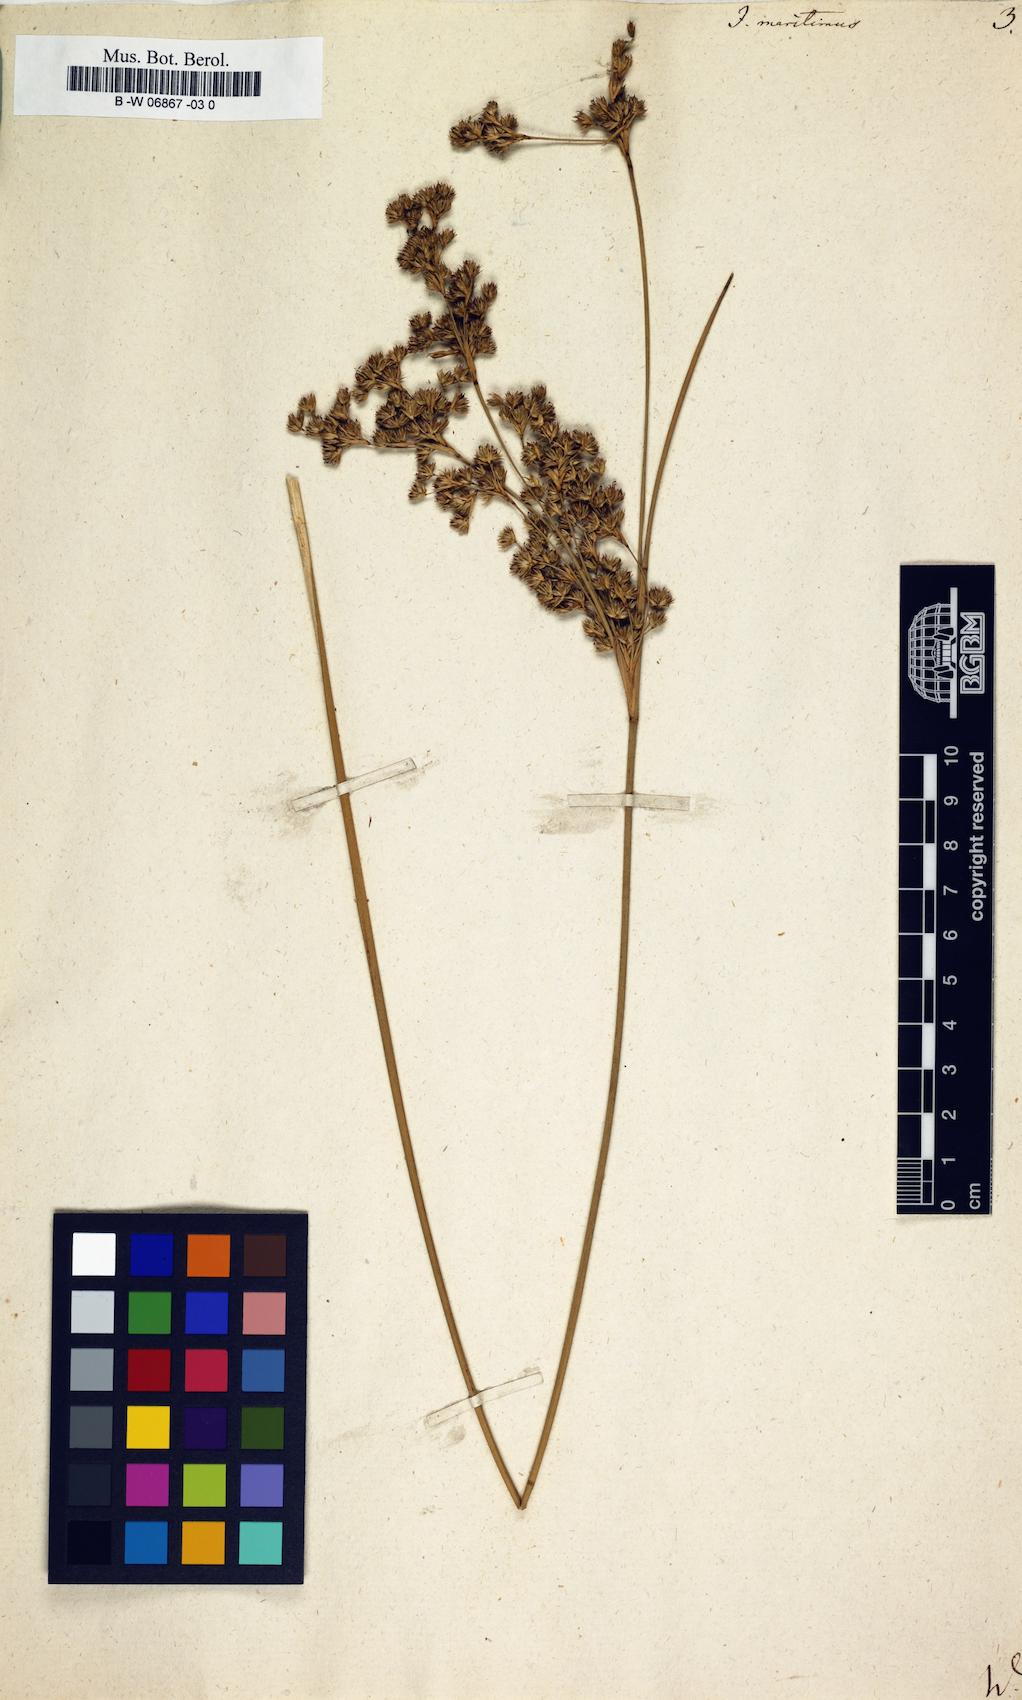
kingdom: Plantae
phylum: Tracheophyta
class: Liliopsida
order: Poales
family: Juncaceae
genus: Juncus
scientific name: Juncus maritimus
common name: Sea rush
